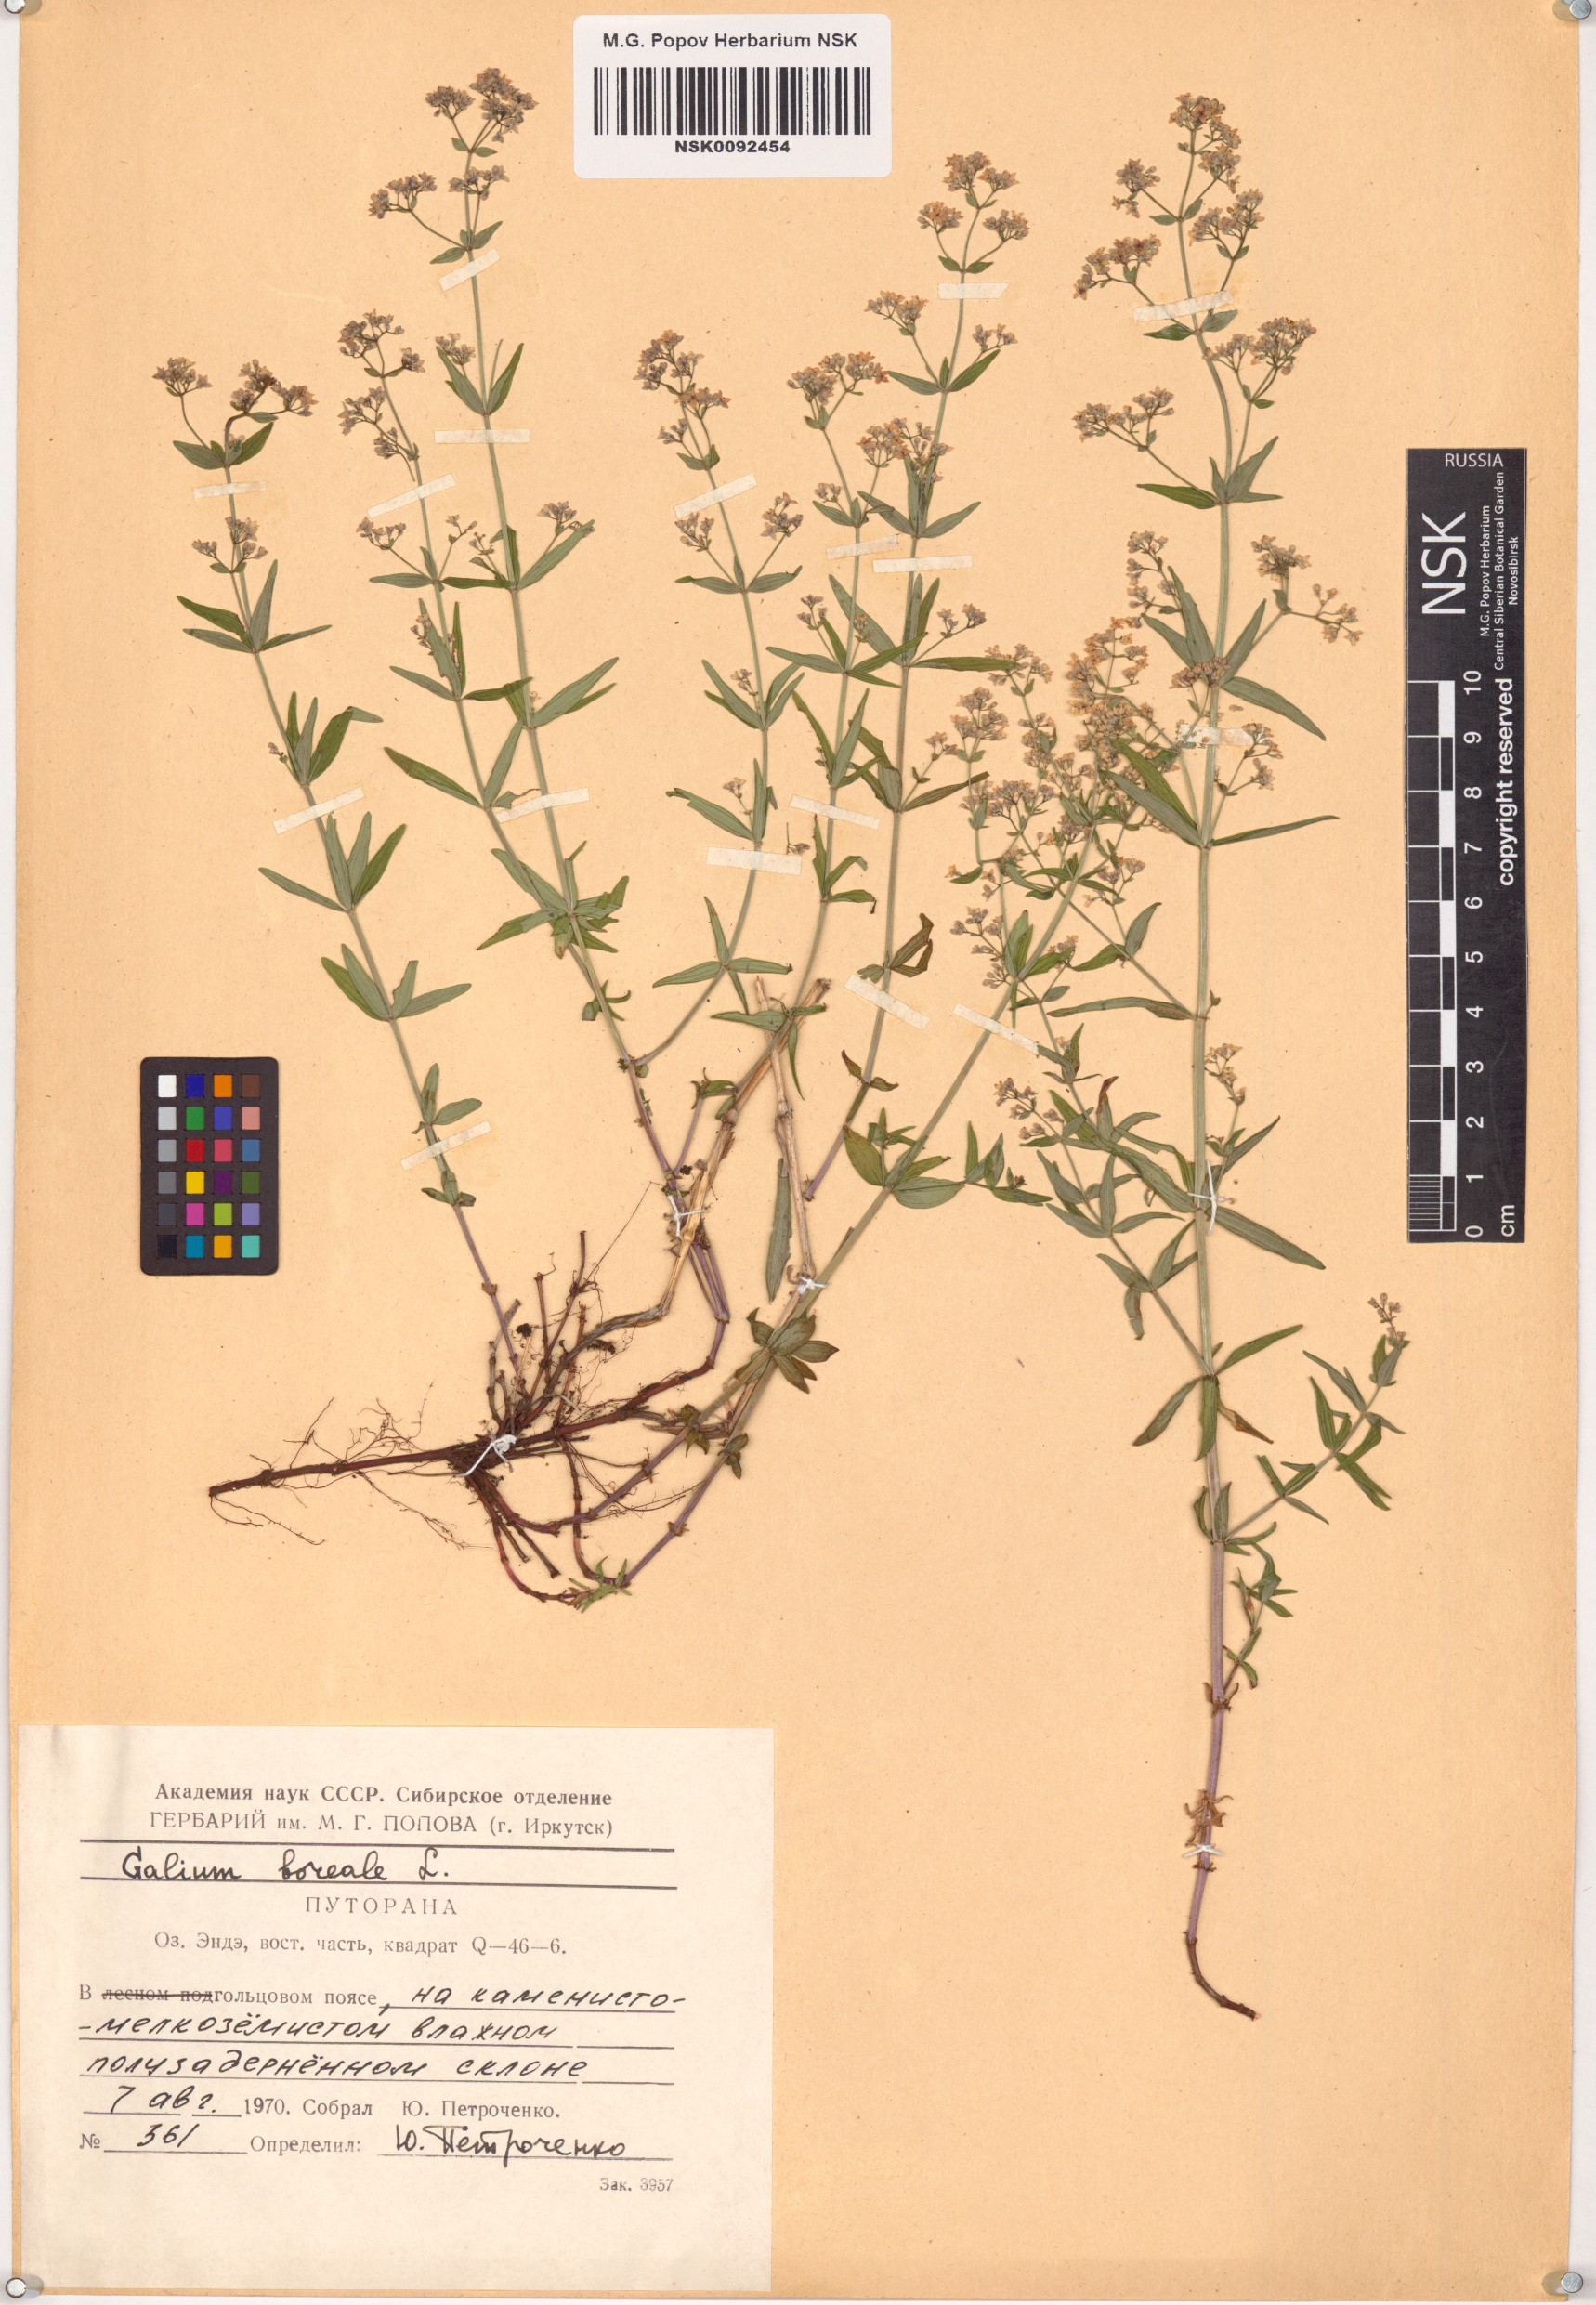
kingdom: Plantae
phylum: Tracheophyta
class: Magnoliopsida
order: Gentianales
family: Rubiaceae
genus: Galium
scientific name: Galium boreale
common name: Northern bedstraw
